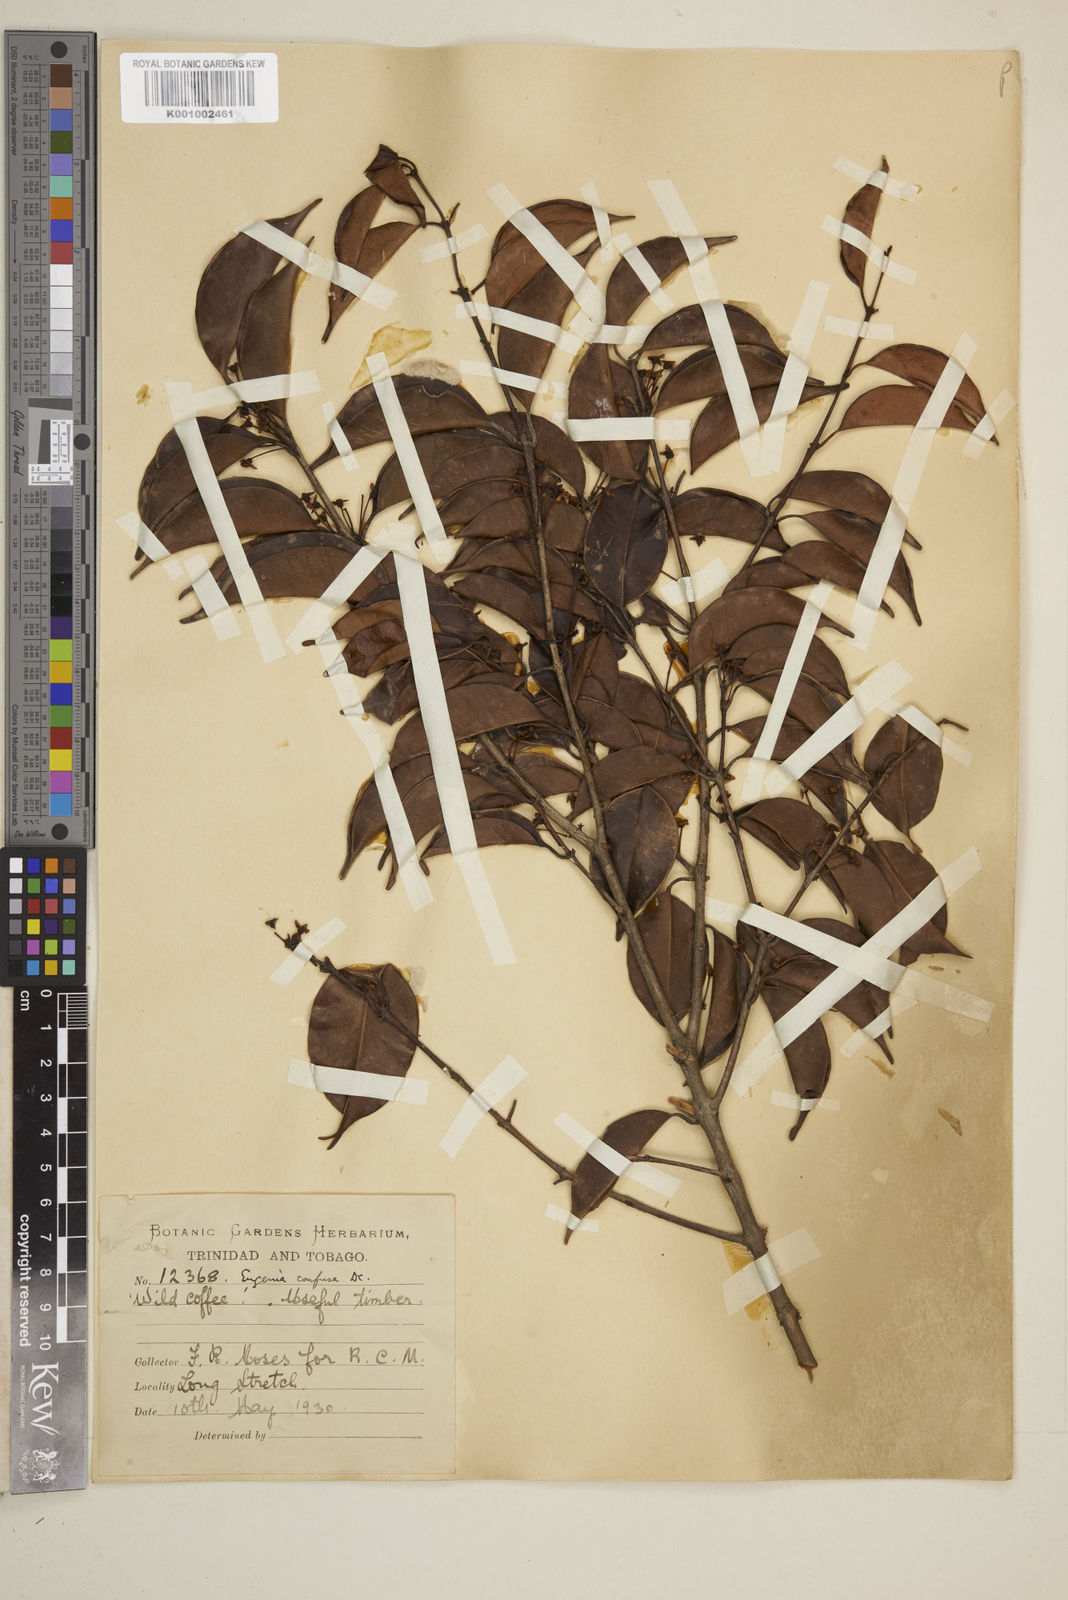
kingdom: Plantae
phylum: Tracheophyta
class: Magnoliopsida
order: Myrtales
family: Myrtaceae
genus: Eugenia
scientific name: Eugenia confusa
